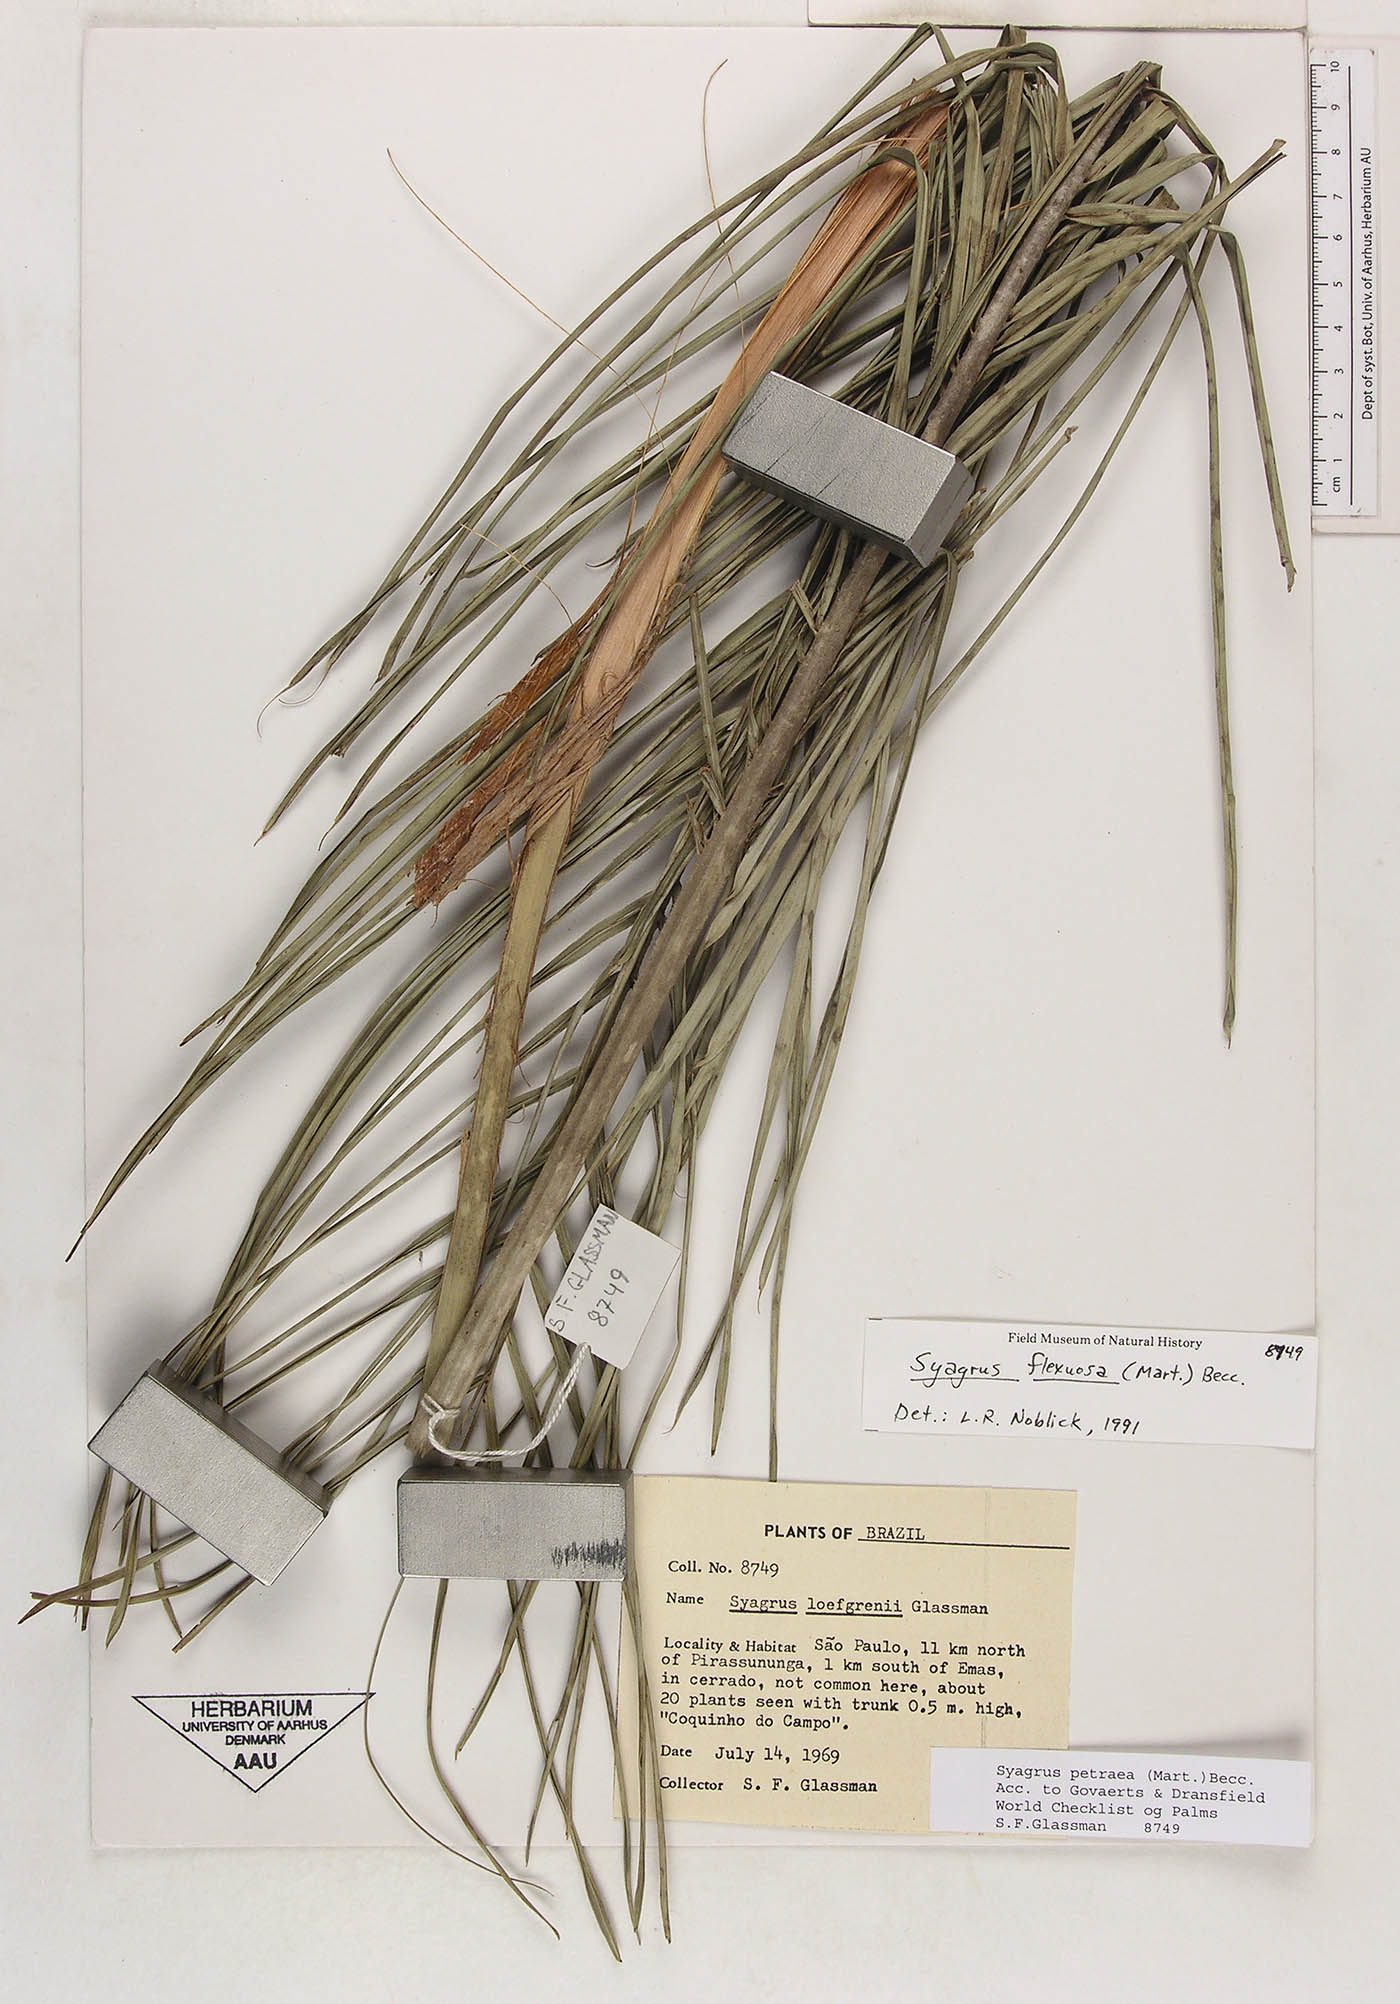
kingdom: Plantae
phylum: Tracheophyta
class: Liliopsida
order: Arecales
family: Arecaceae
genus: Syagrus
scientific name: Syagrus petraea
